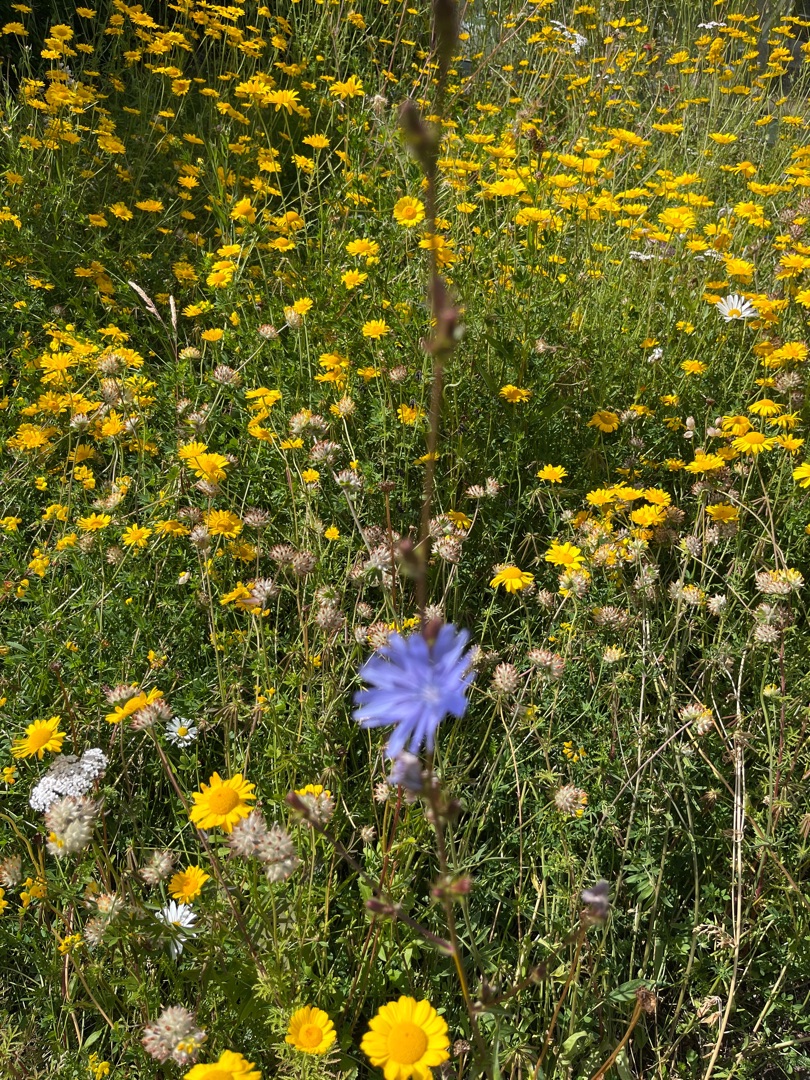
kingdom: Plantae
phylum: Tracheophyta
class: Magnoliopsida
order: Asterales
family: Asteraceae
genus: Cichorium
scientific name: Cichorium intybus
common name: Cikorie
